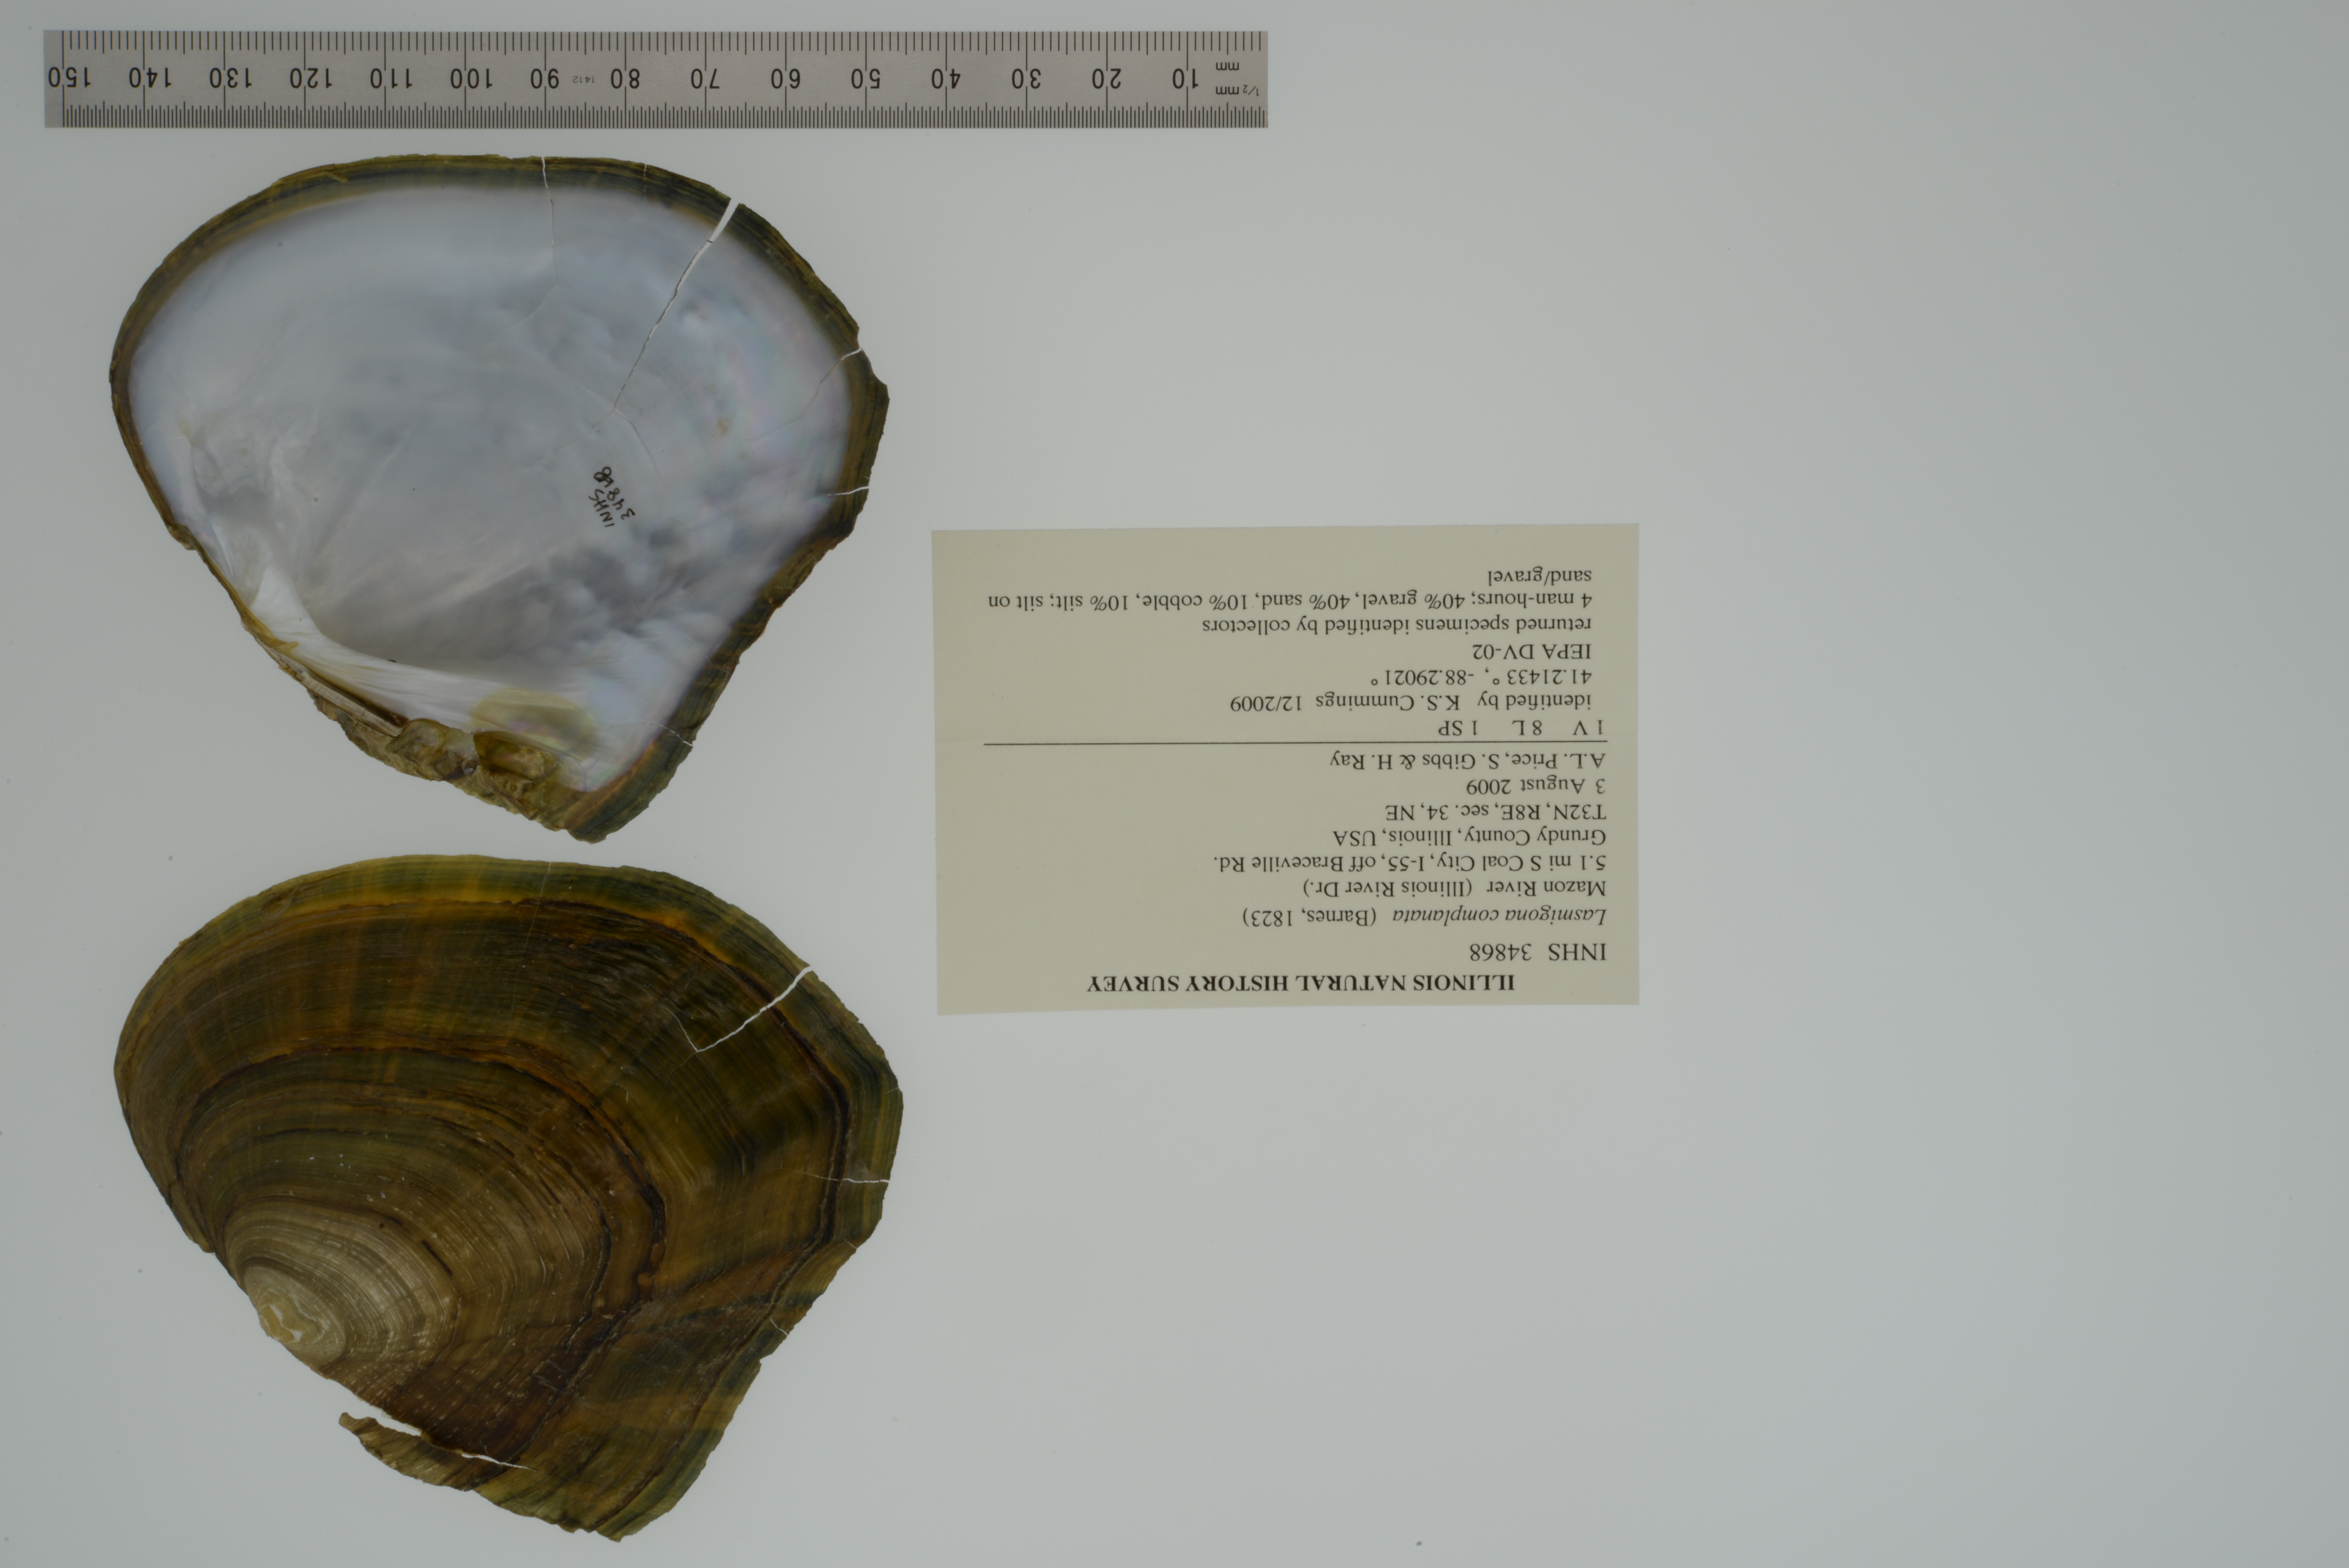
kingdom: Animalia
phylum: Mollusca
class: Bivalvia
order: Unionida
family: Unionidae
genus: Lasmigona
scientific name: Lasmigona complanata
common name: White heelsplitter
